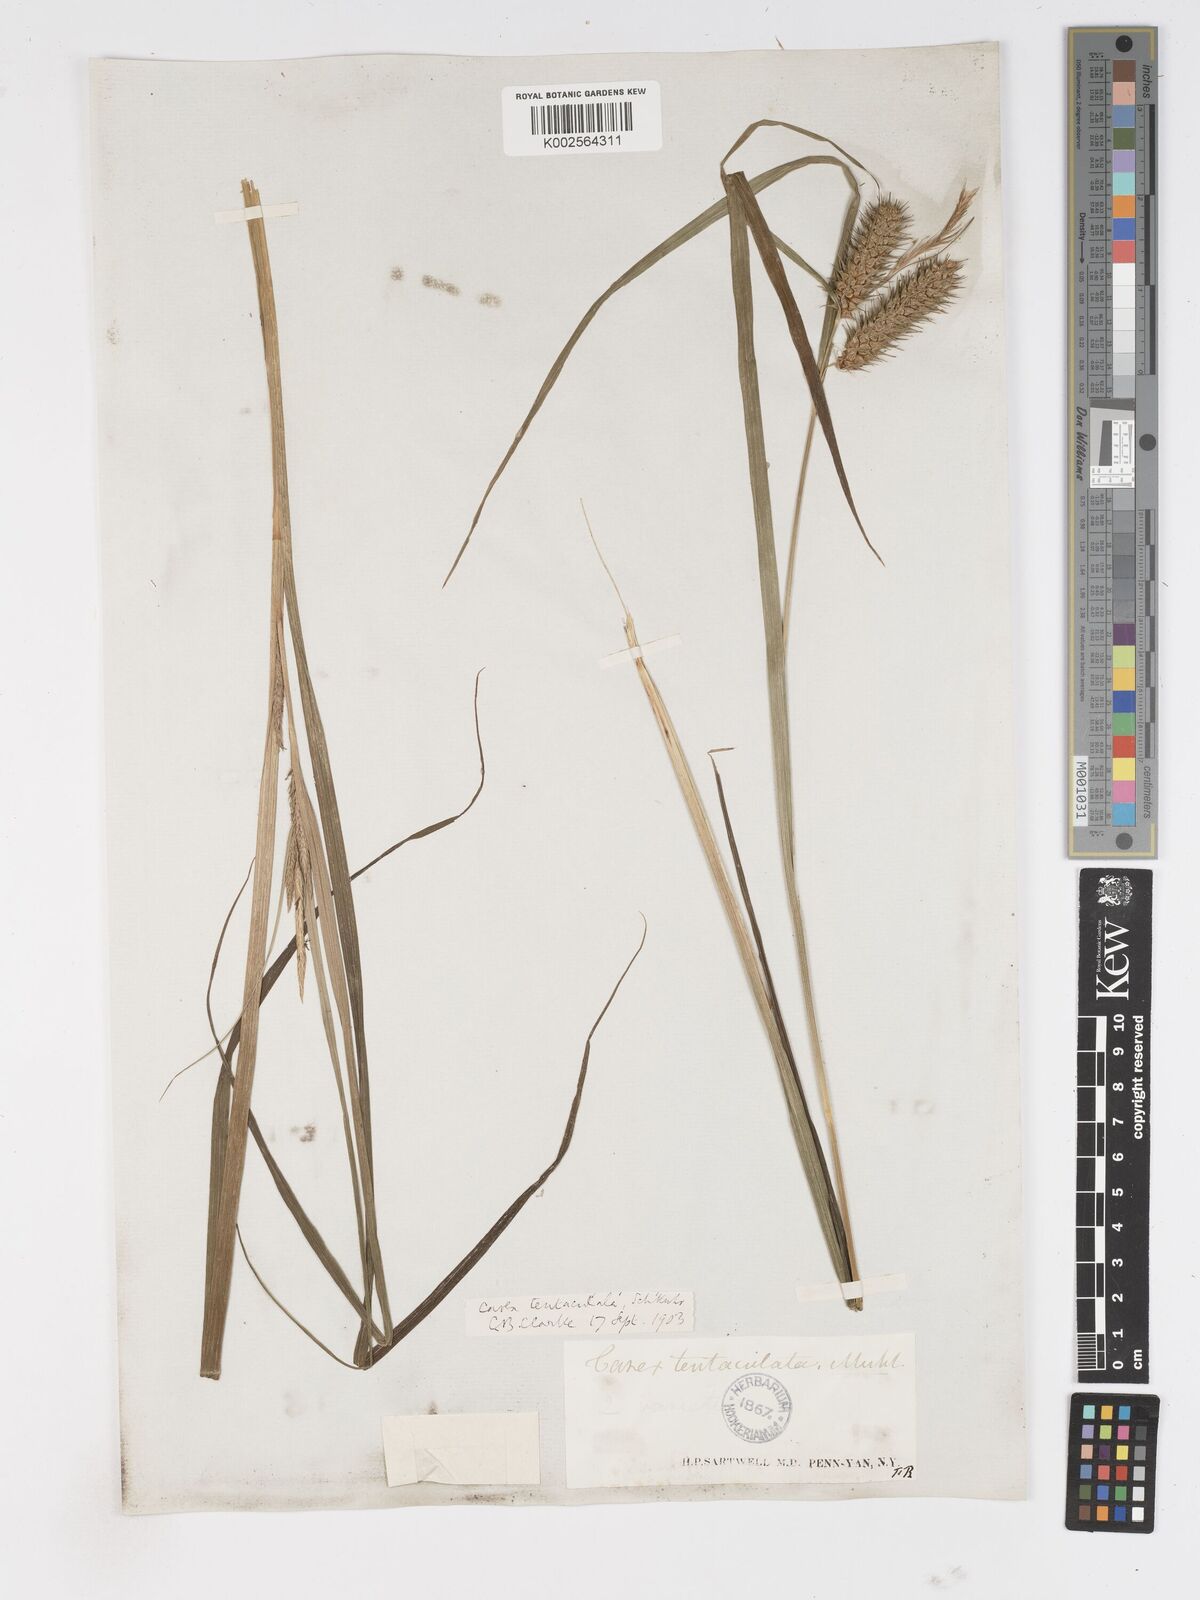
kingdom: Plantae
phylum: Tracheophyta
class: Liliopsida
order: Poales
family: Cyperaceae
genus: Carex
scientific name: Carex lurida
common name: Sallow sedge
